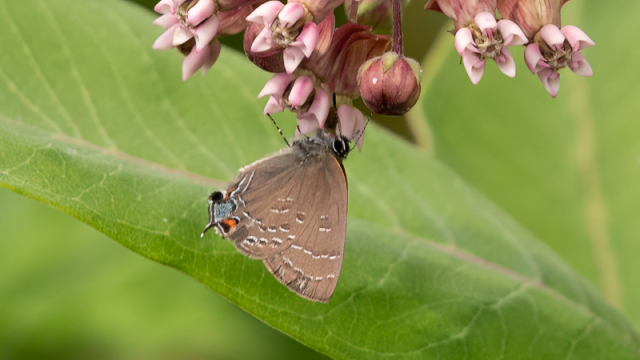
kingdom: Animalia
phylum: Arthropoda
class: Insecta
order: Lepidoptera
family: Lycaenidae
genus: Satyrium
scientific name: Satyrium calanus
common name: Banded Hairstreak
